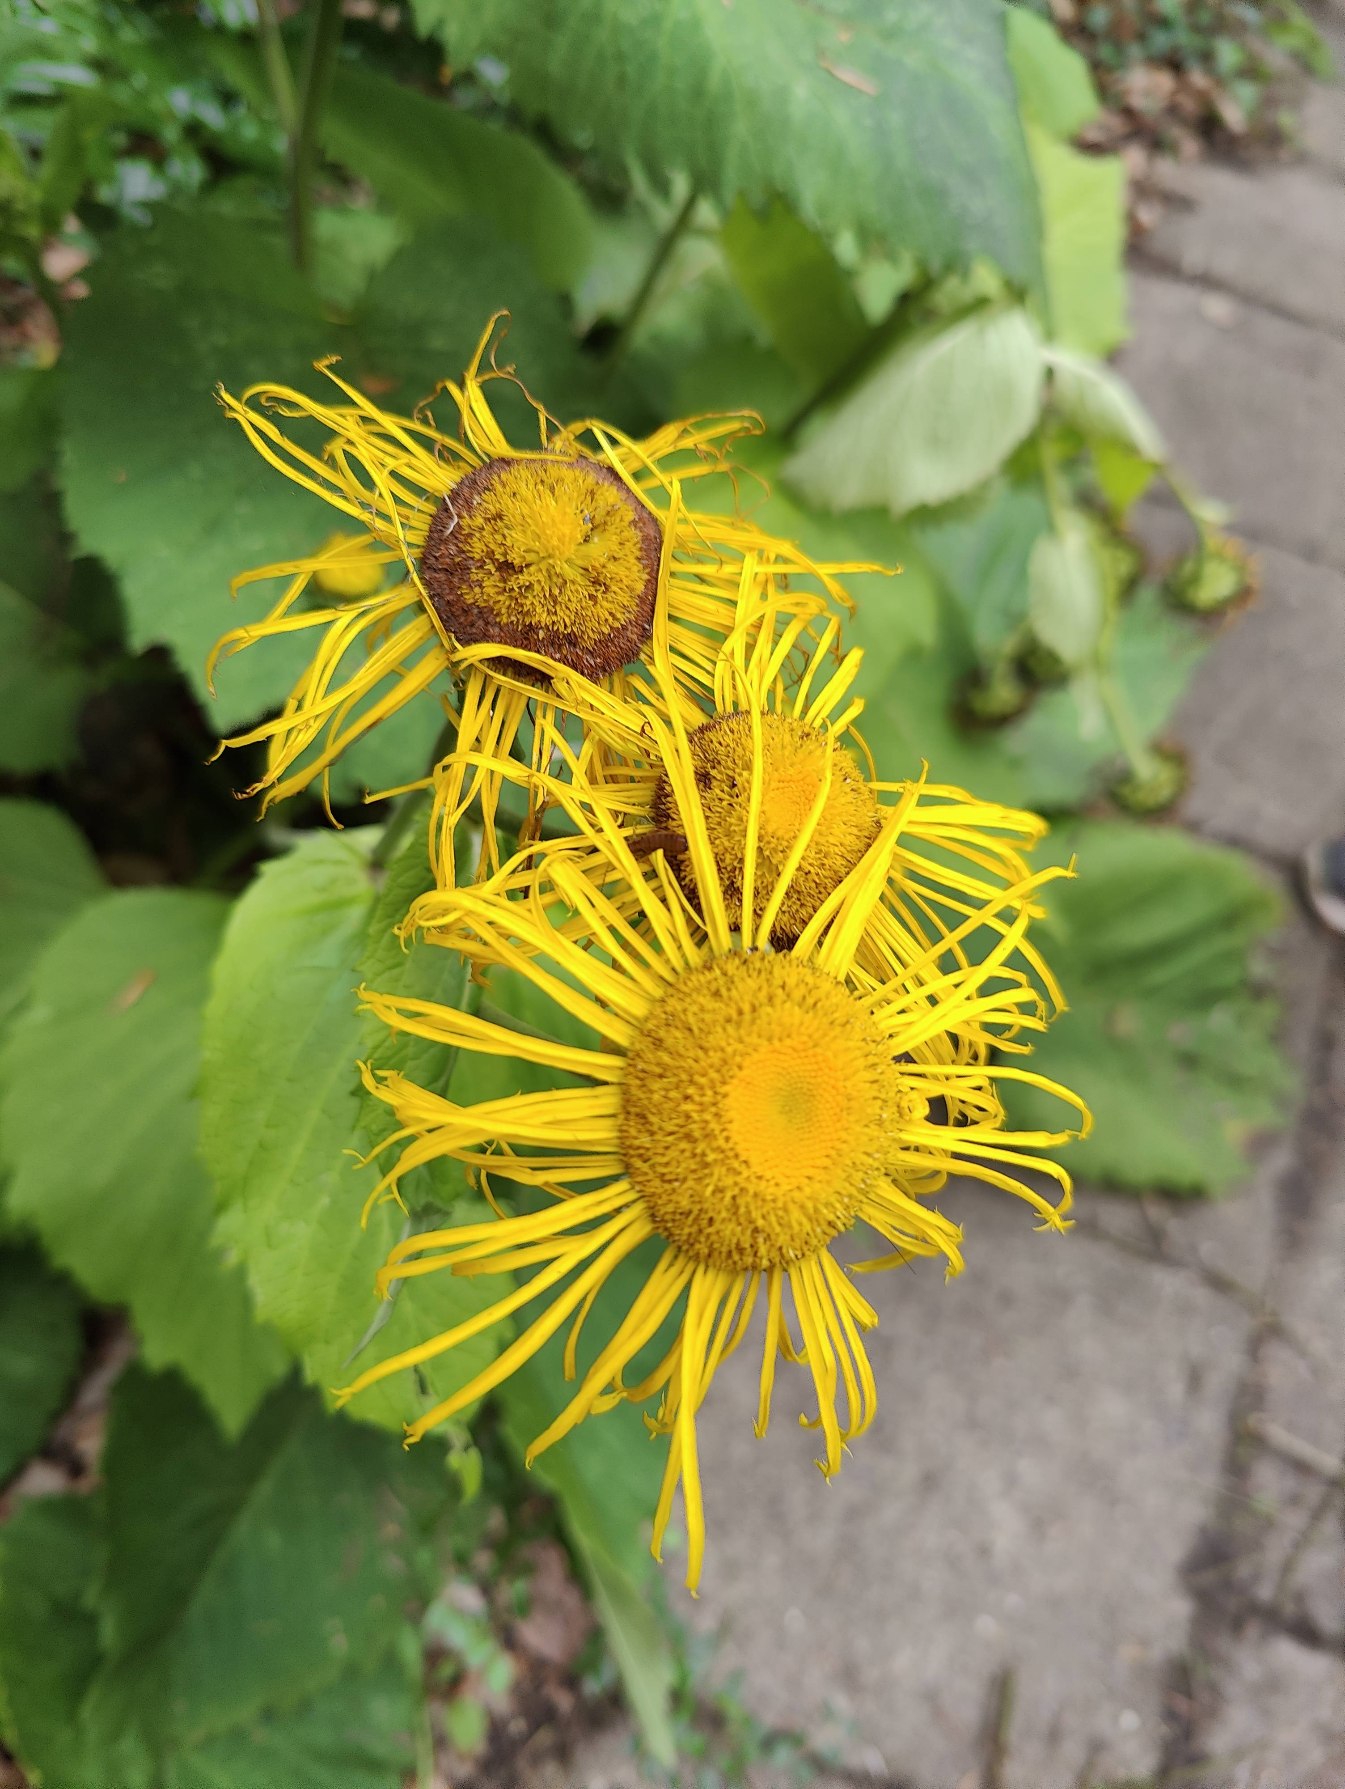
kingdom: Plantae
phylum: Tracheophyta
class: Magnoliopsida
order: Asterales
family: Asteraceae
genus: Telekia
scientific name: Telekia speciosa
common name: Tusindstråle
